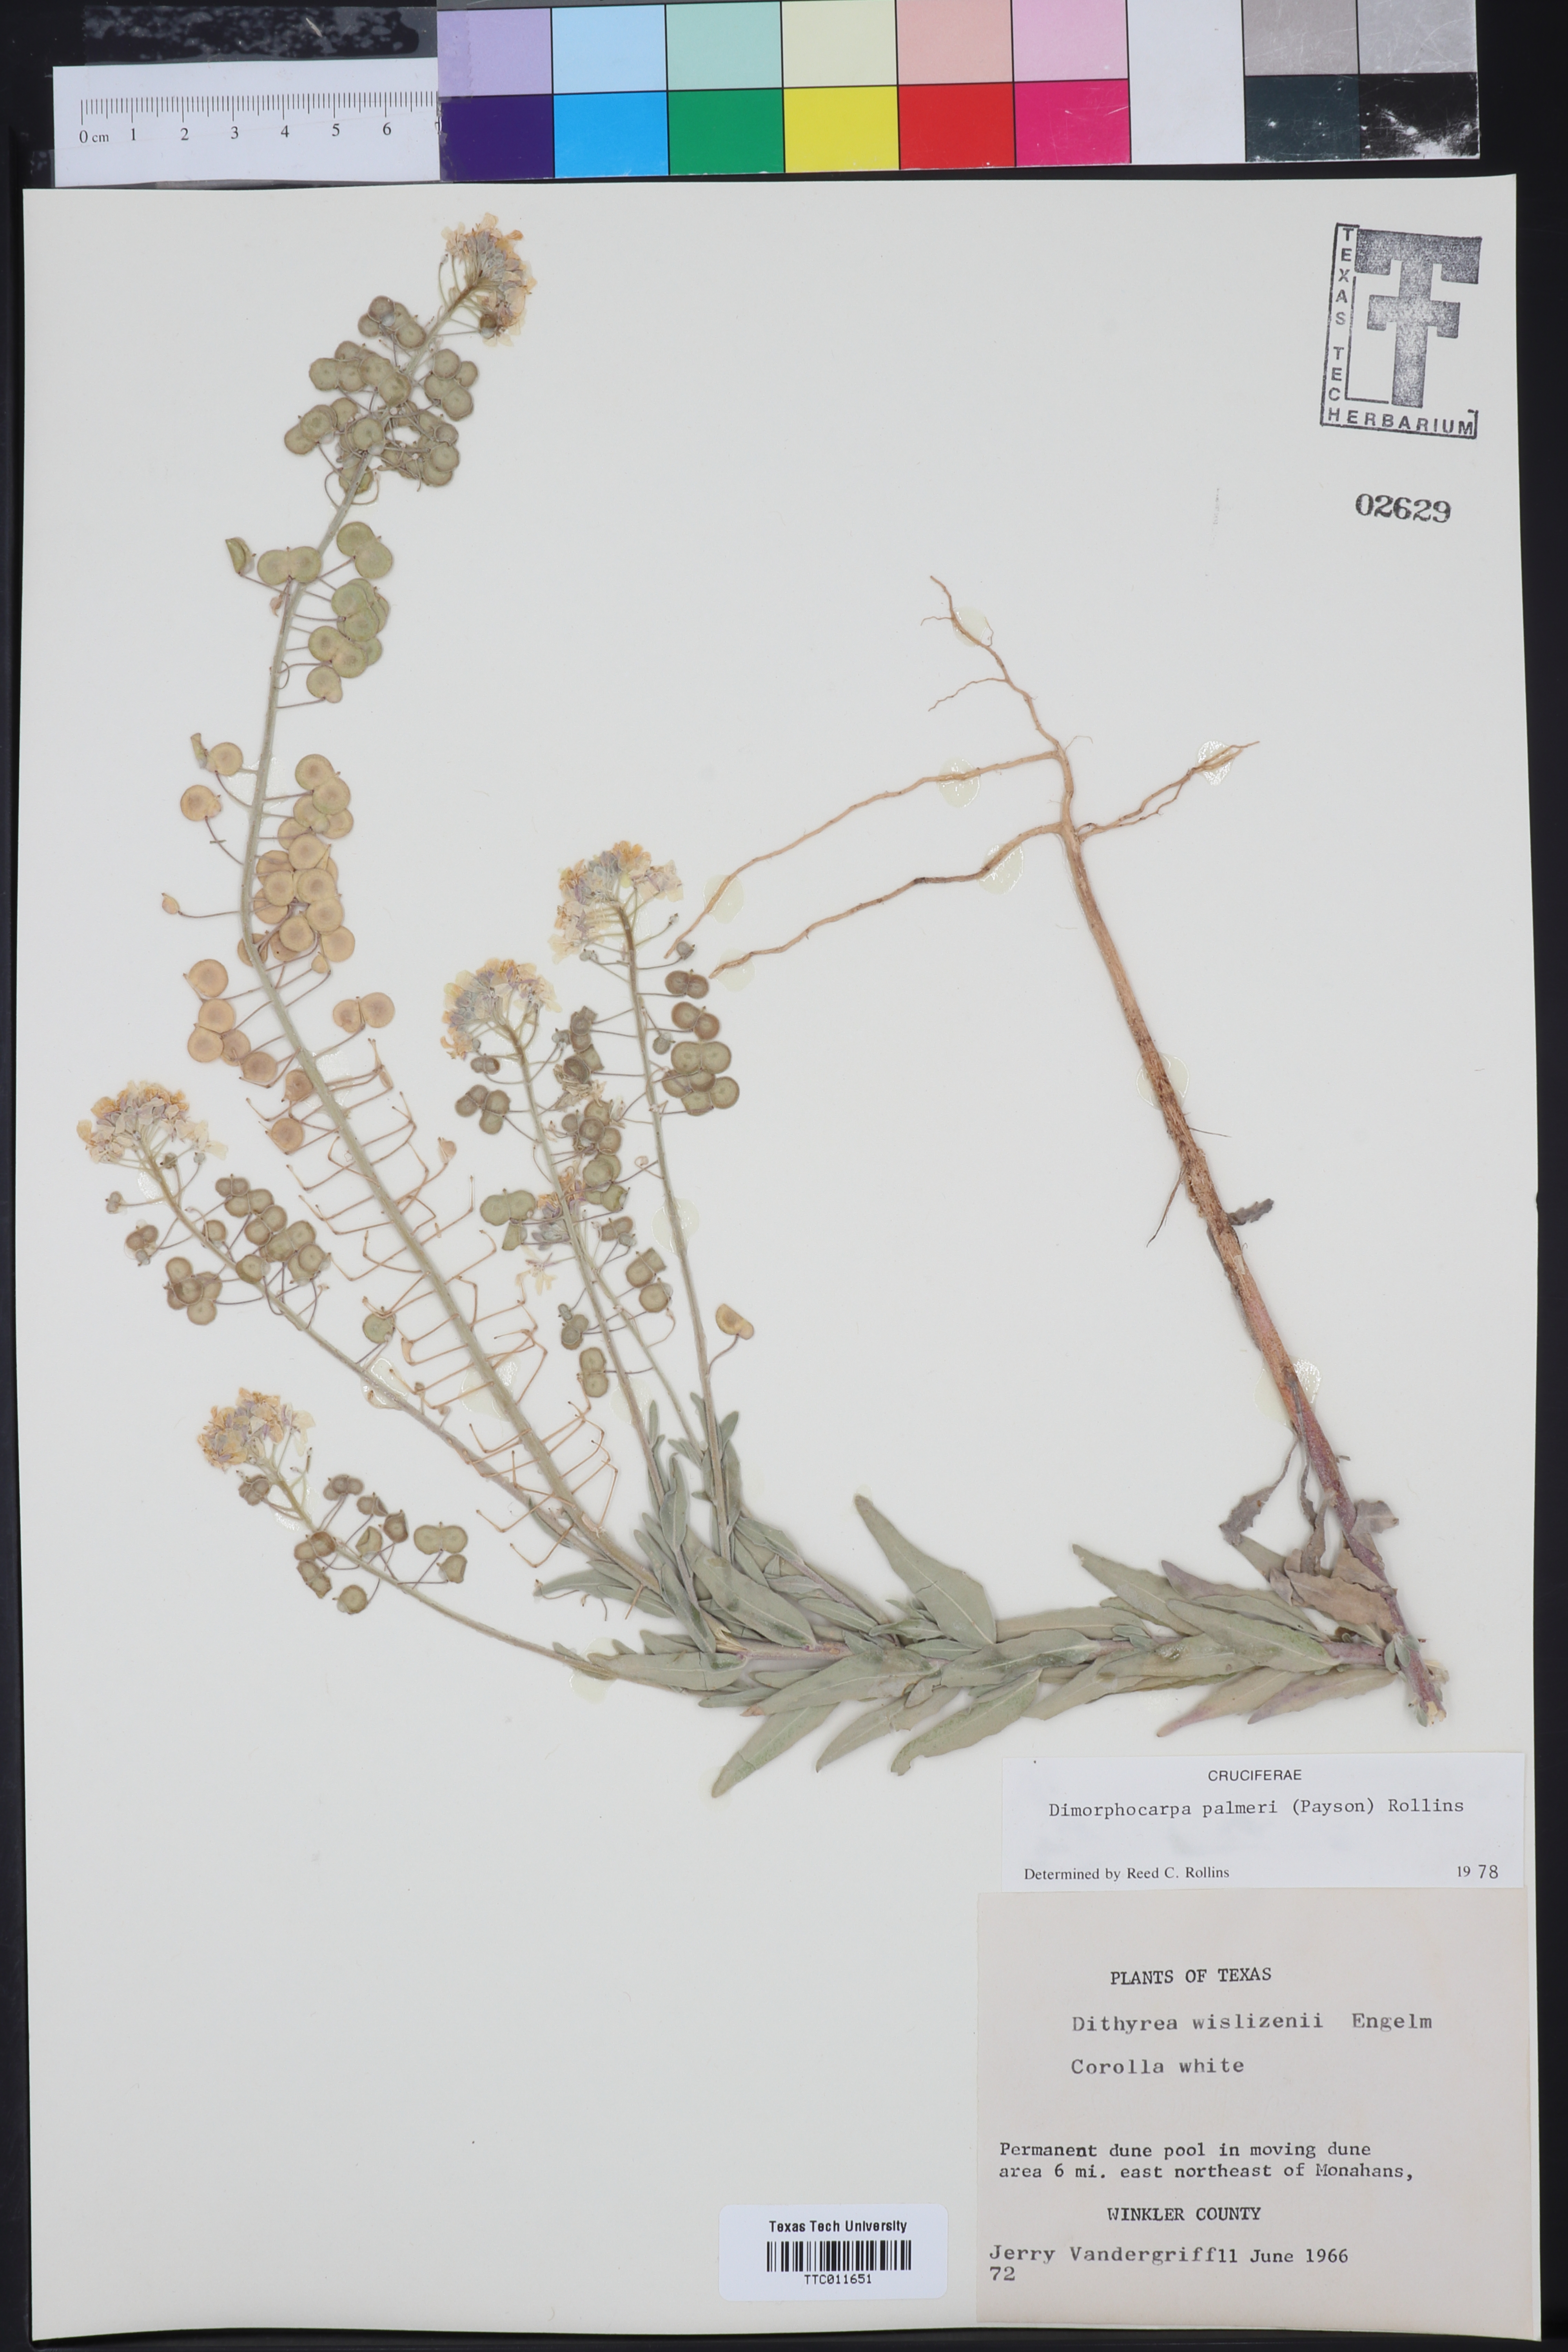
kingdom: Plantae
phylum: Tracheophyta
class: Magnoliopsida
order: Brassicales
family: Brassicaceae
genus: Dimorphocarpa
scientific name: Dimorphocarpa candicans
